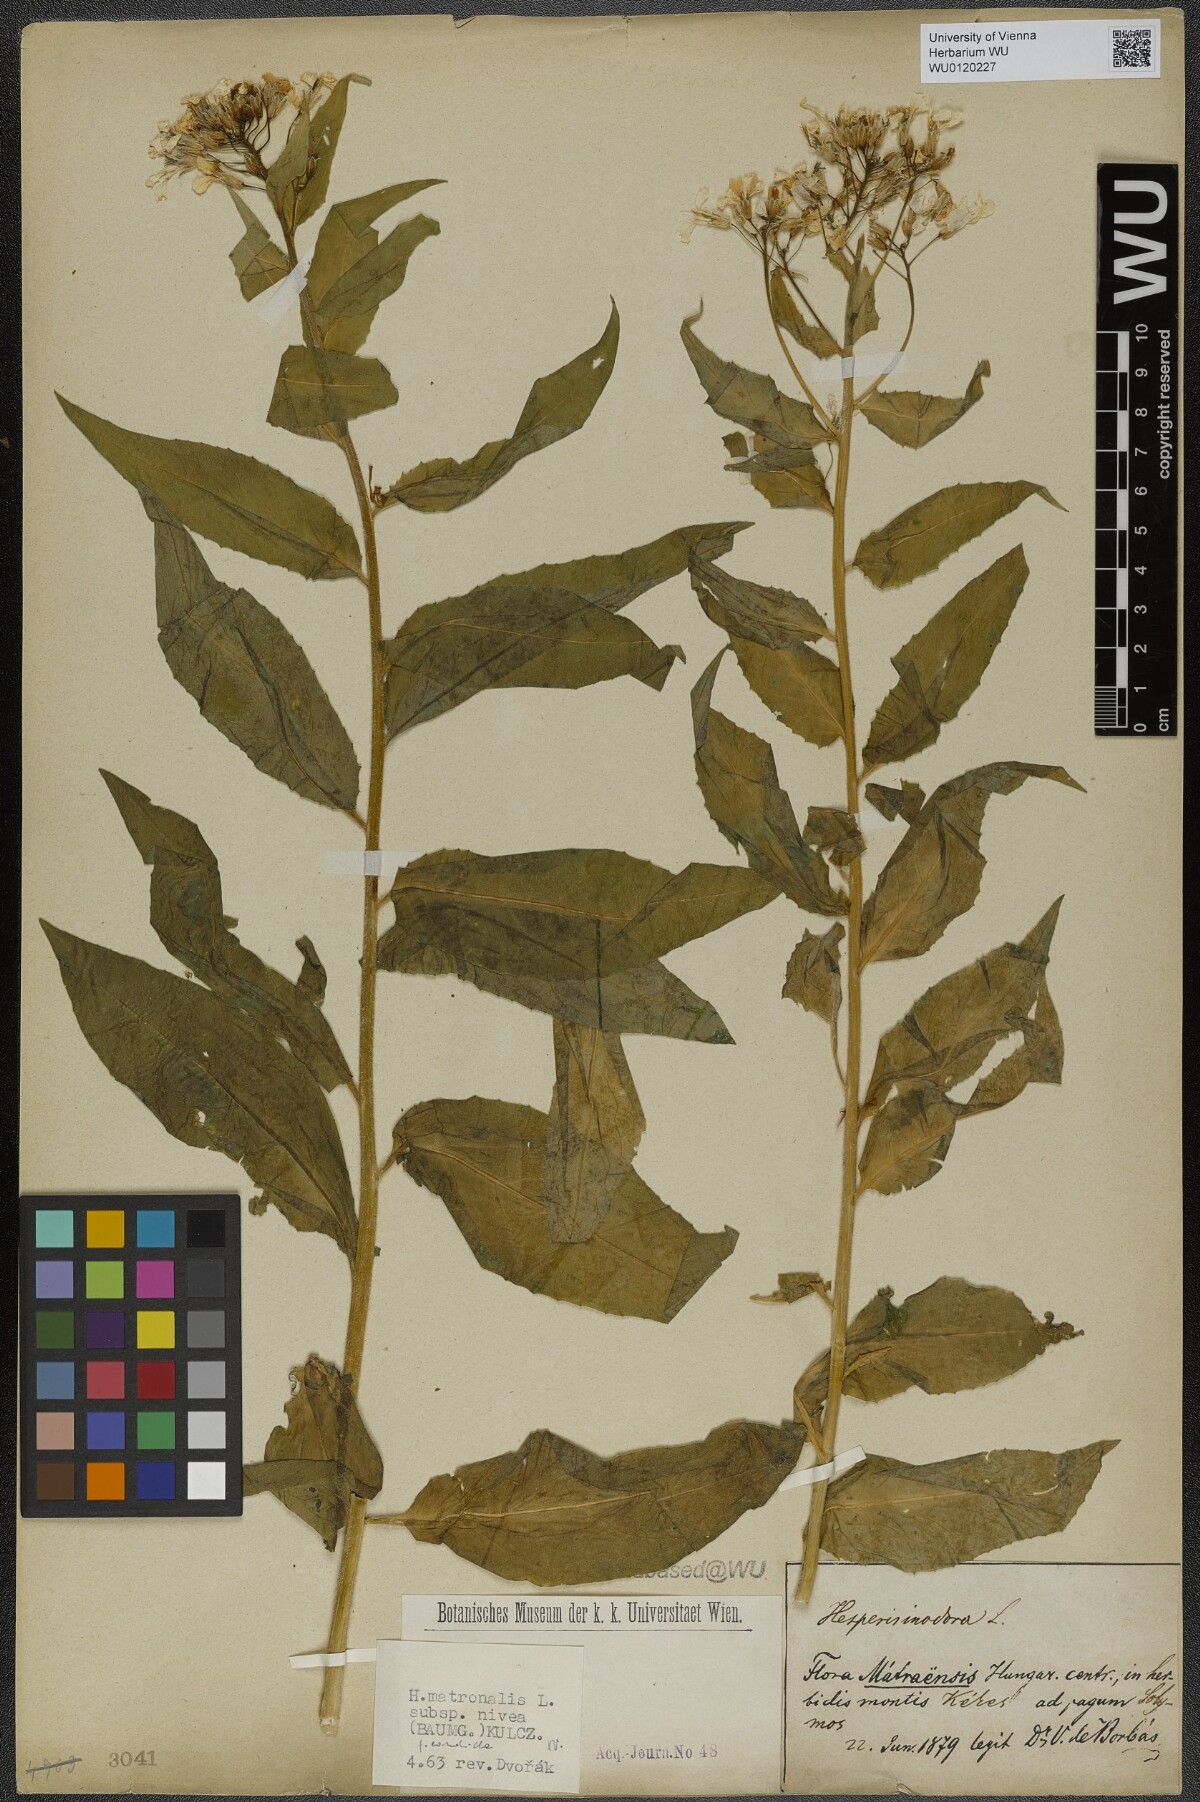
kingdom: Plantae
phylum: Tracheophyta
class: Magnoliopsida
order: Brassicales
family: Brassicaceae
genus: Hesperis
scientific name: Hesperis matronalis
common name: Dame's-violet
